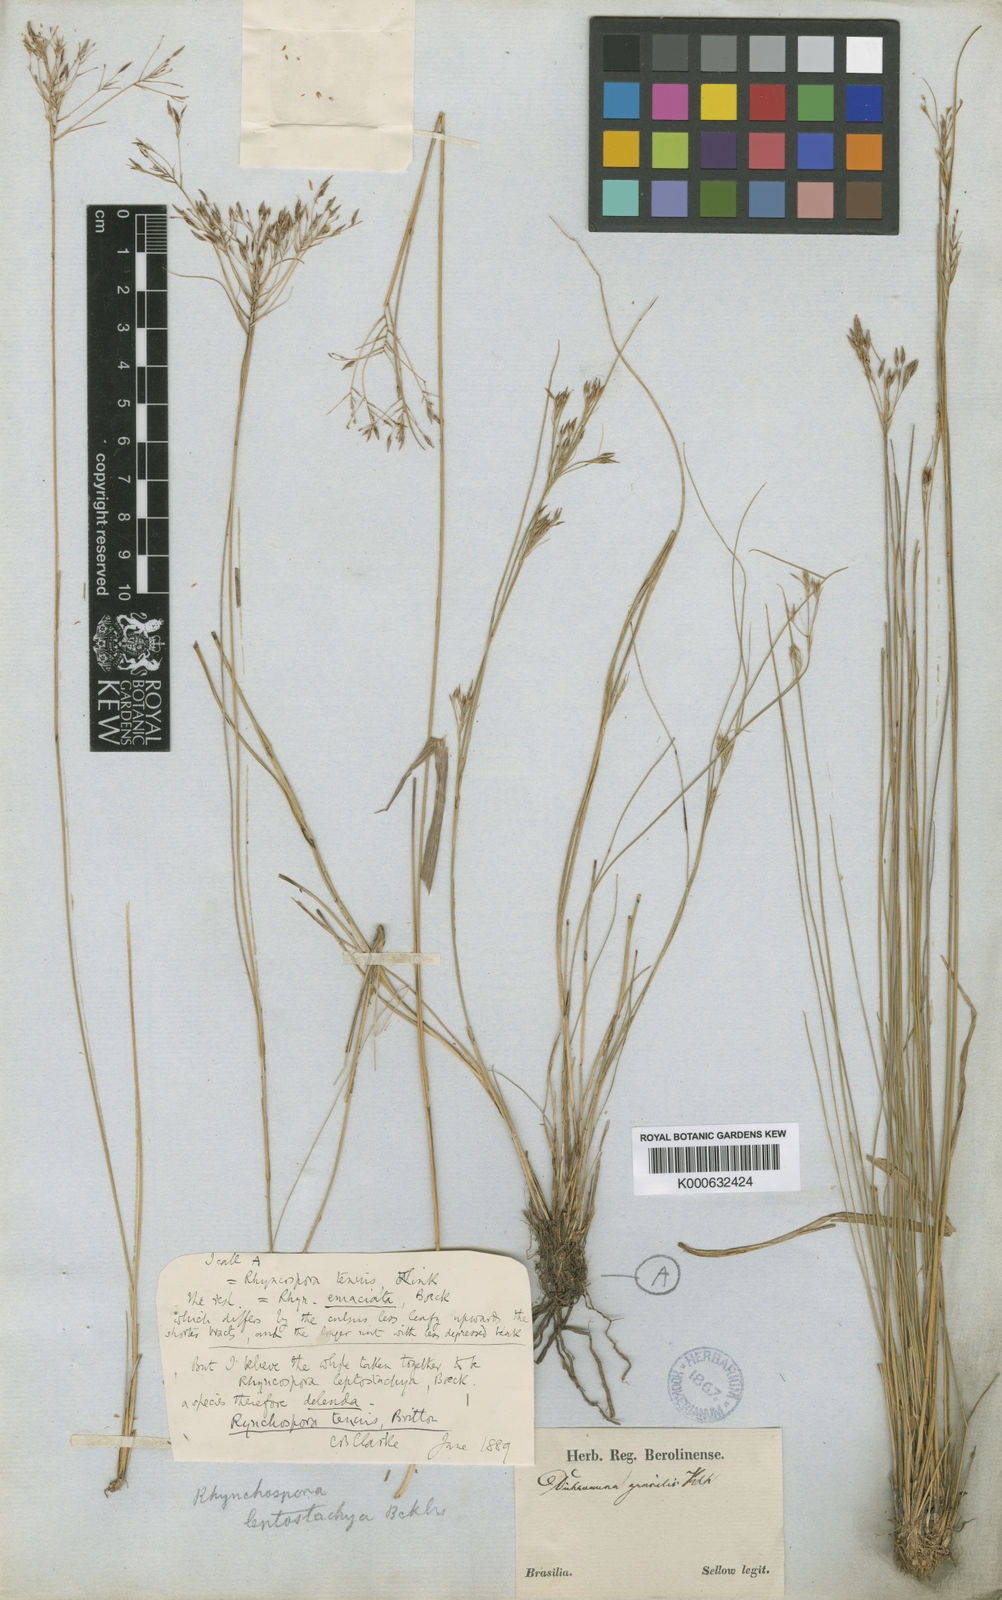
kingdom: Plantae
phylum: Tracheophyta
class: Liliopsida
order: Poales
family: Cyperaceae
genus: Rhynchospora
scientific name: Rhynchospora riparia
